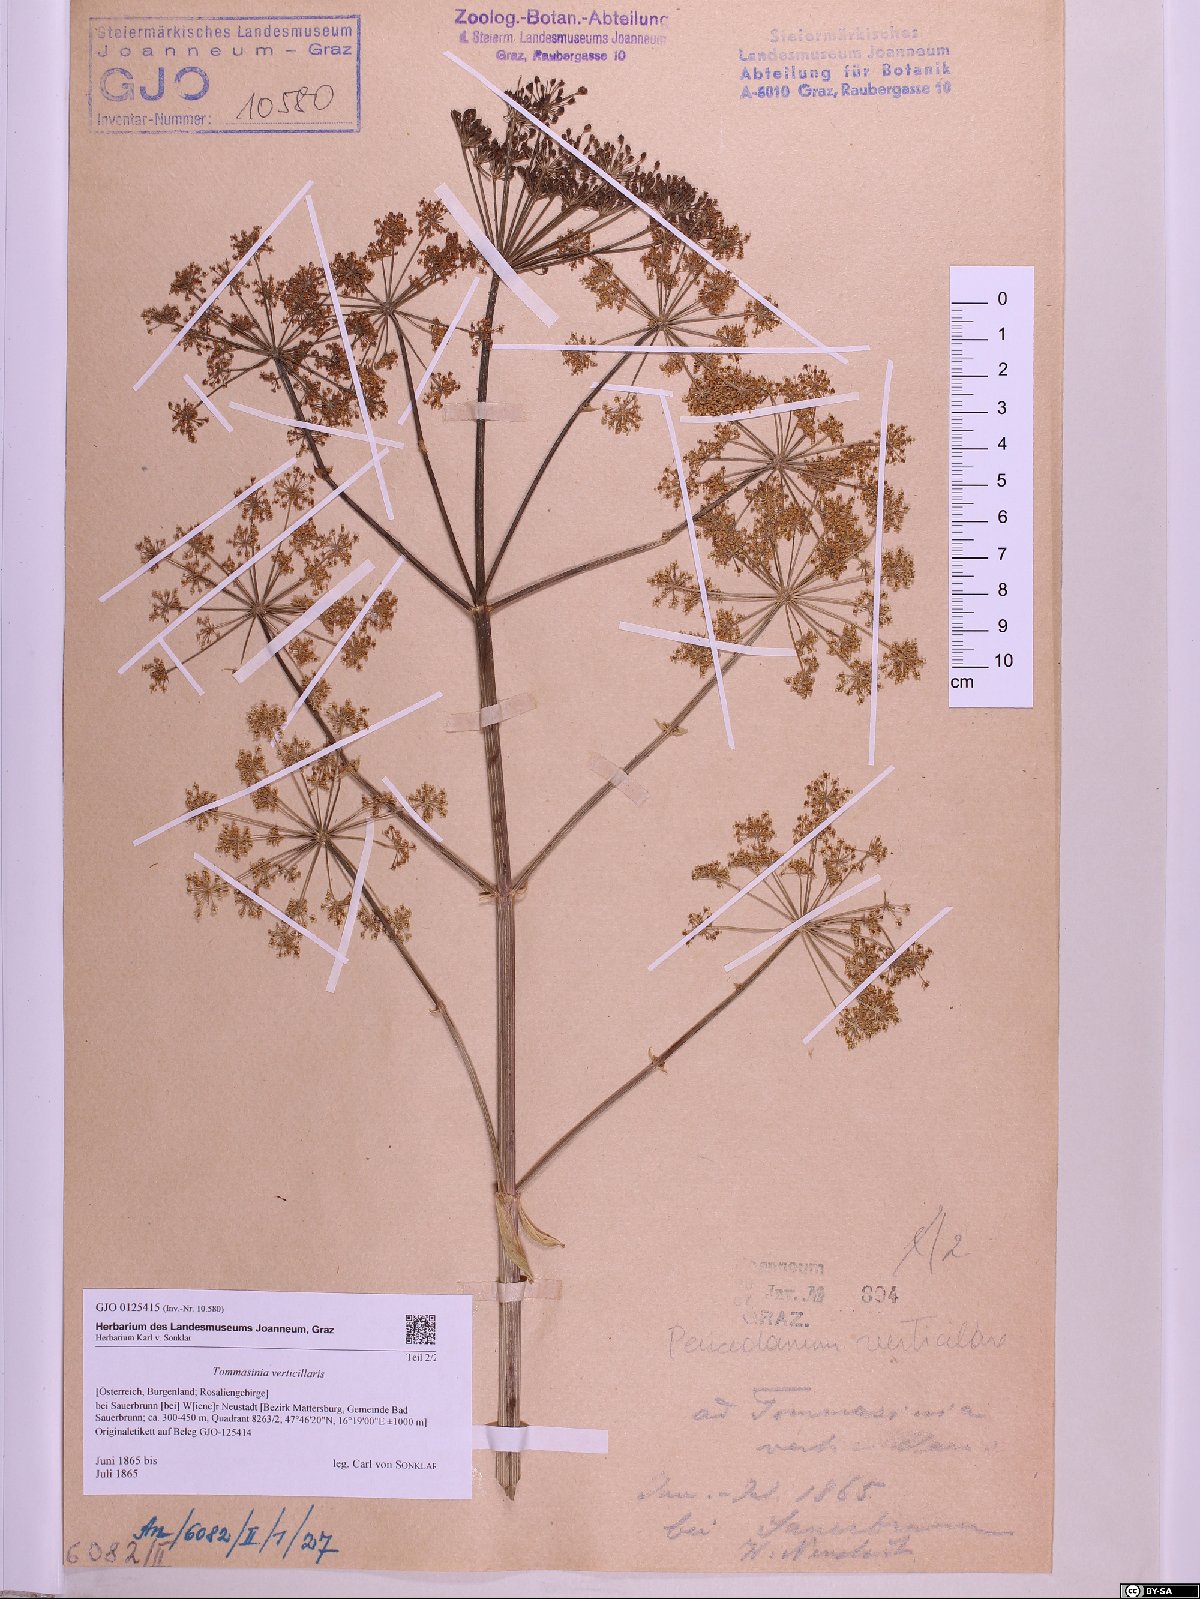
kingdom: Plantae
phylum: Tracheophyta
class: Magnoliopsida
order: Apiales
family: Apiaceae
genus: Tommasinia
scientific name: Tommasinia altissima
